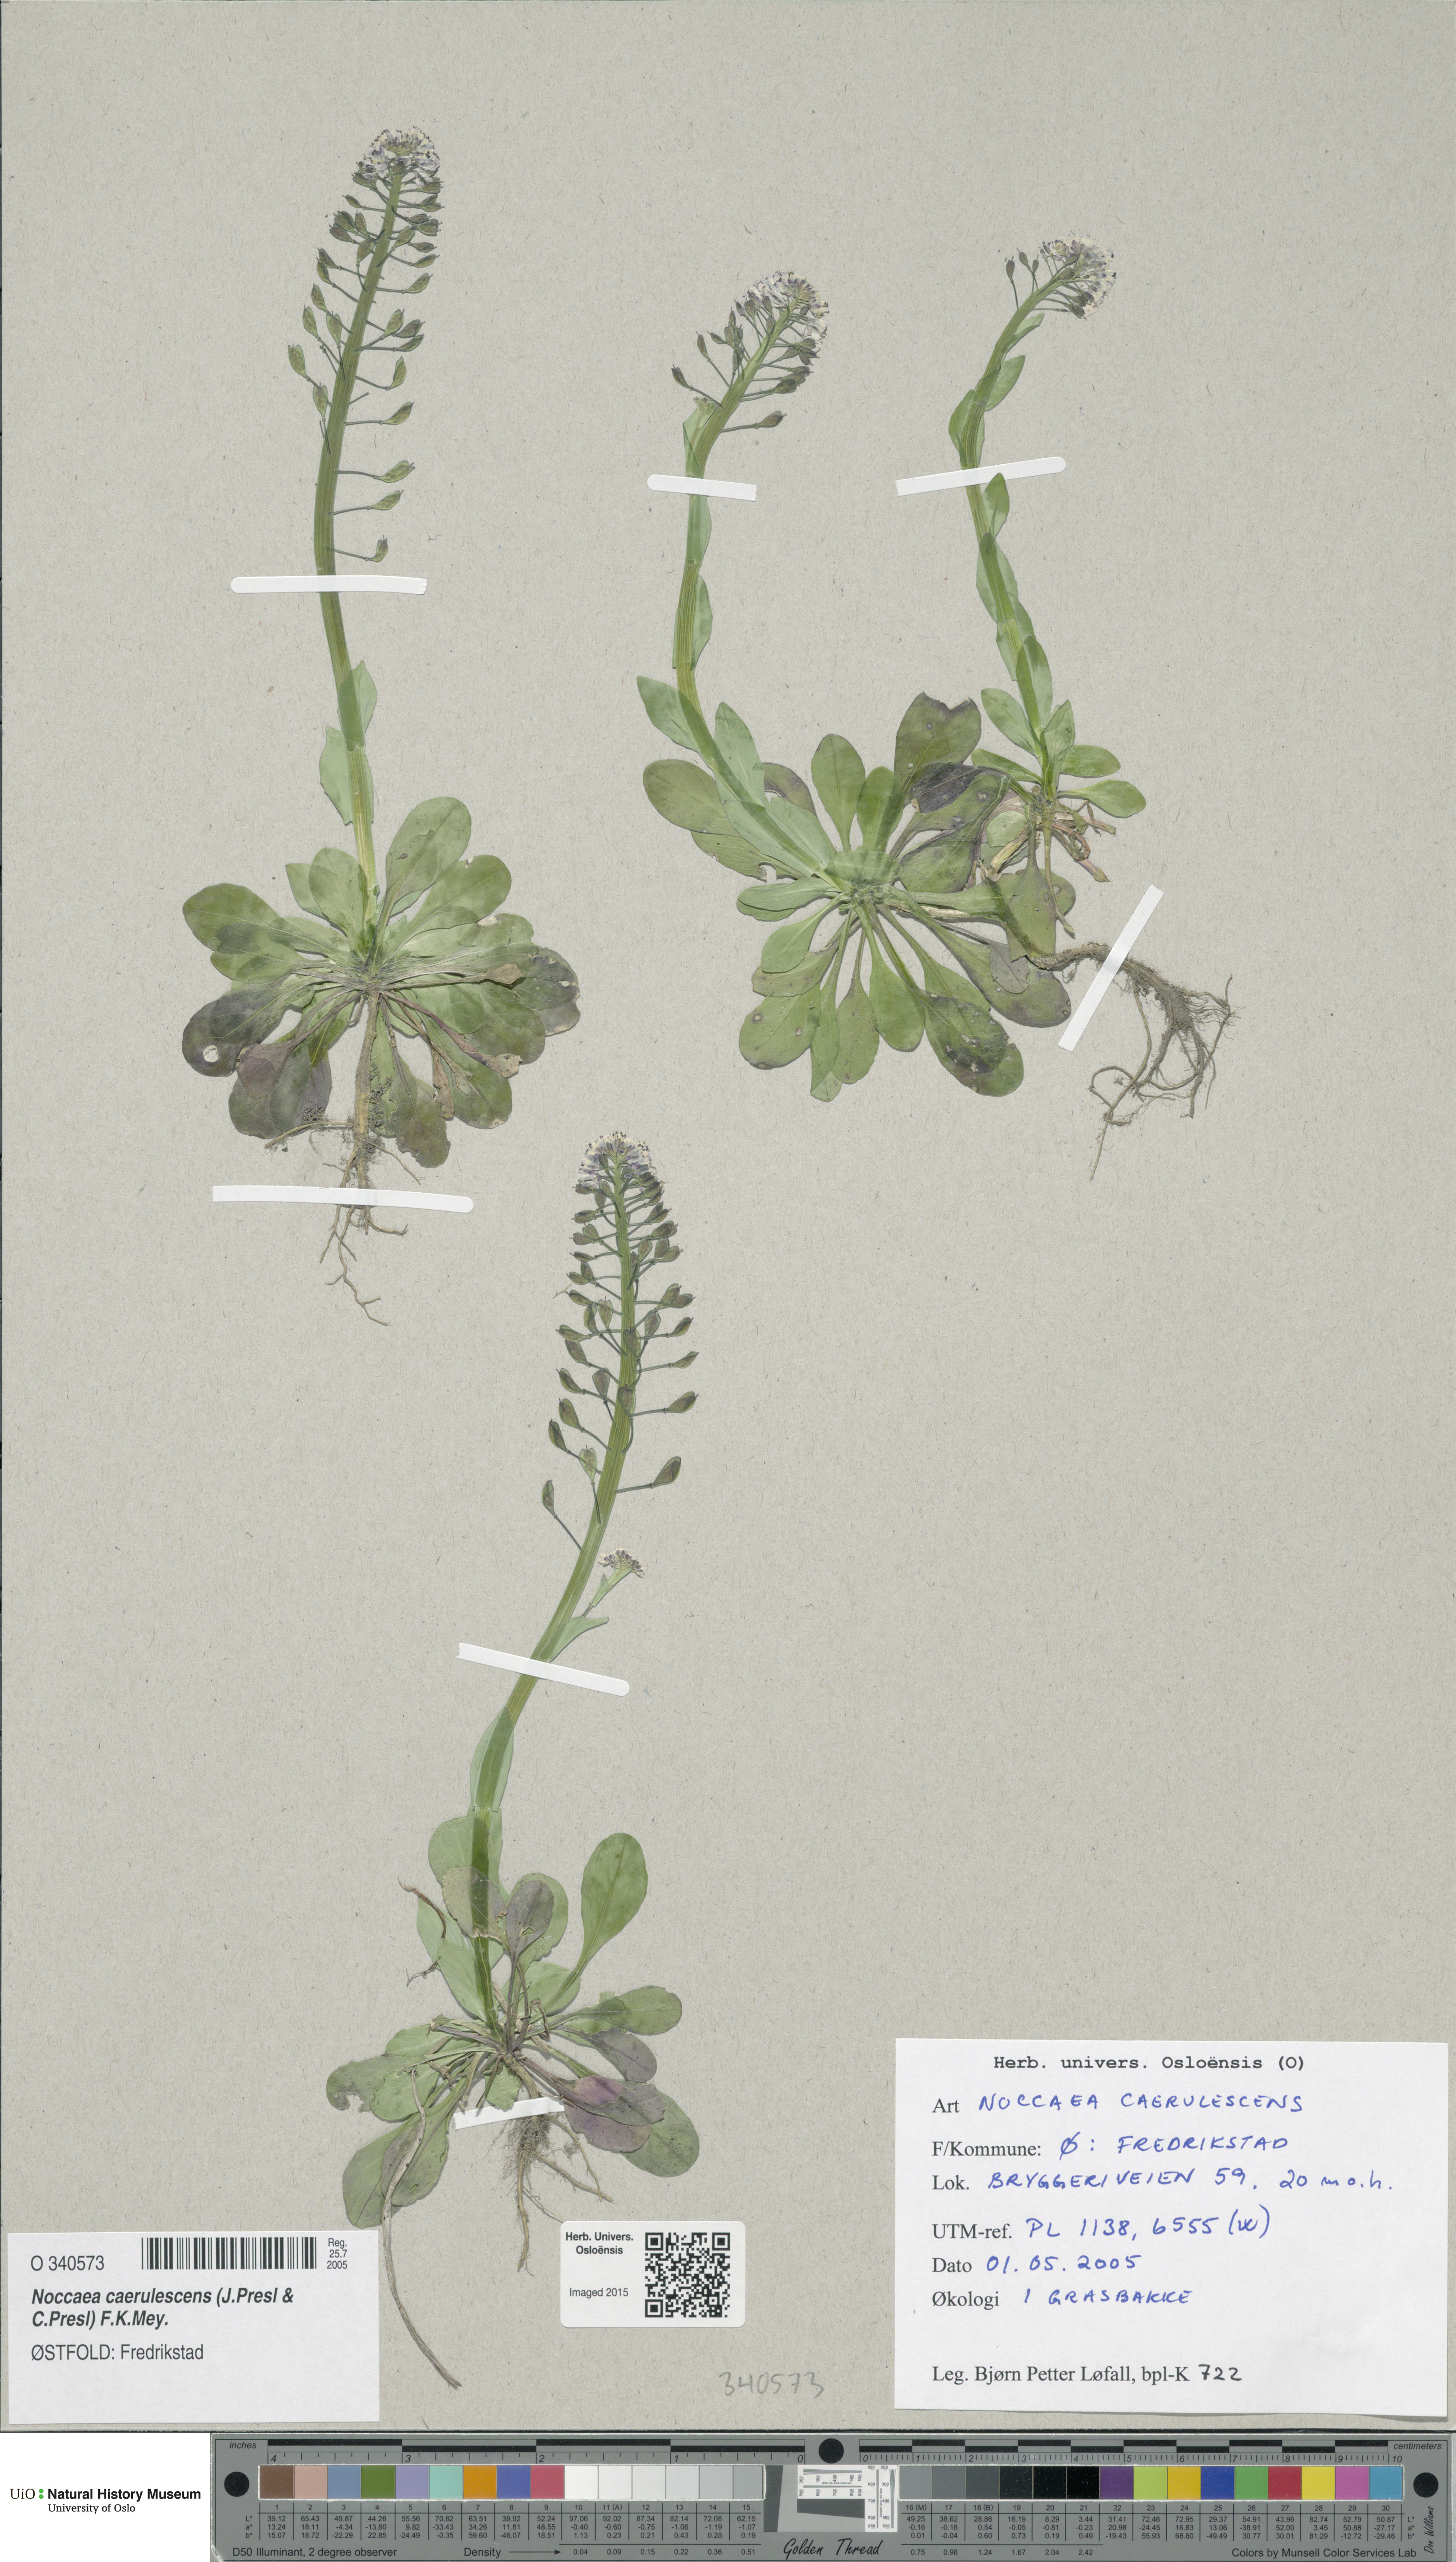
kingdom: Plantae
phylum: Tracheophyta
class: Magnoliopsida
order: Brassicales
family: Brassicaceae
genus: Noccaea
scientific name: Noccaea caerulescens
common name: Alpine pennycress
